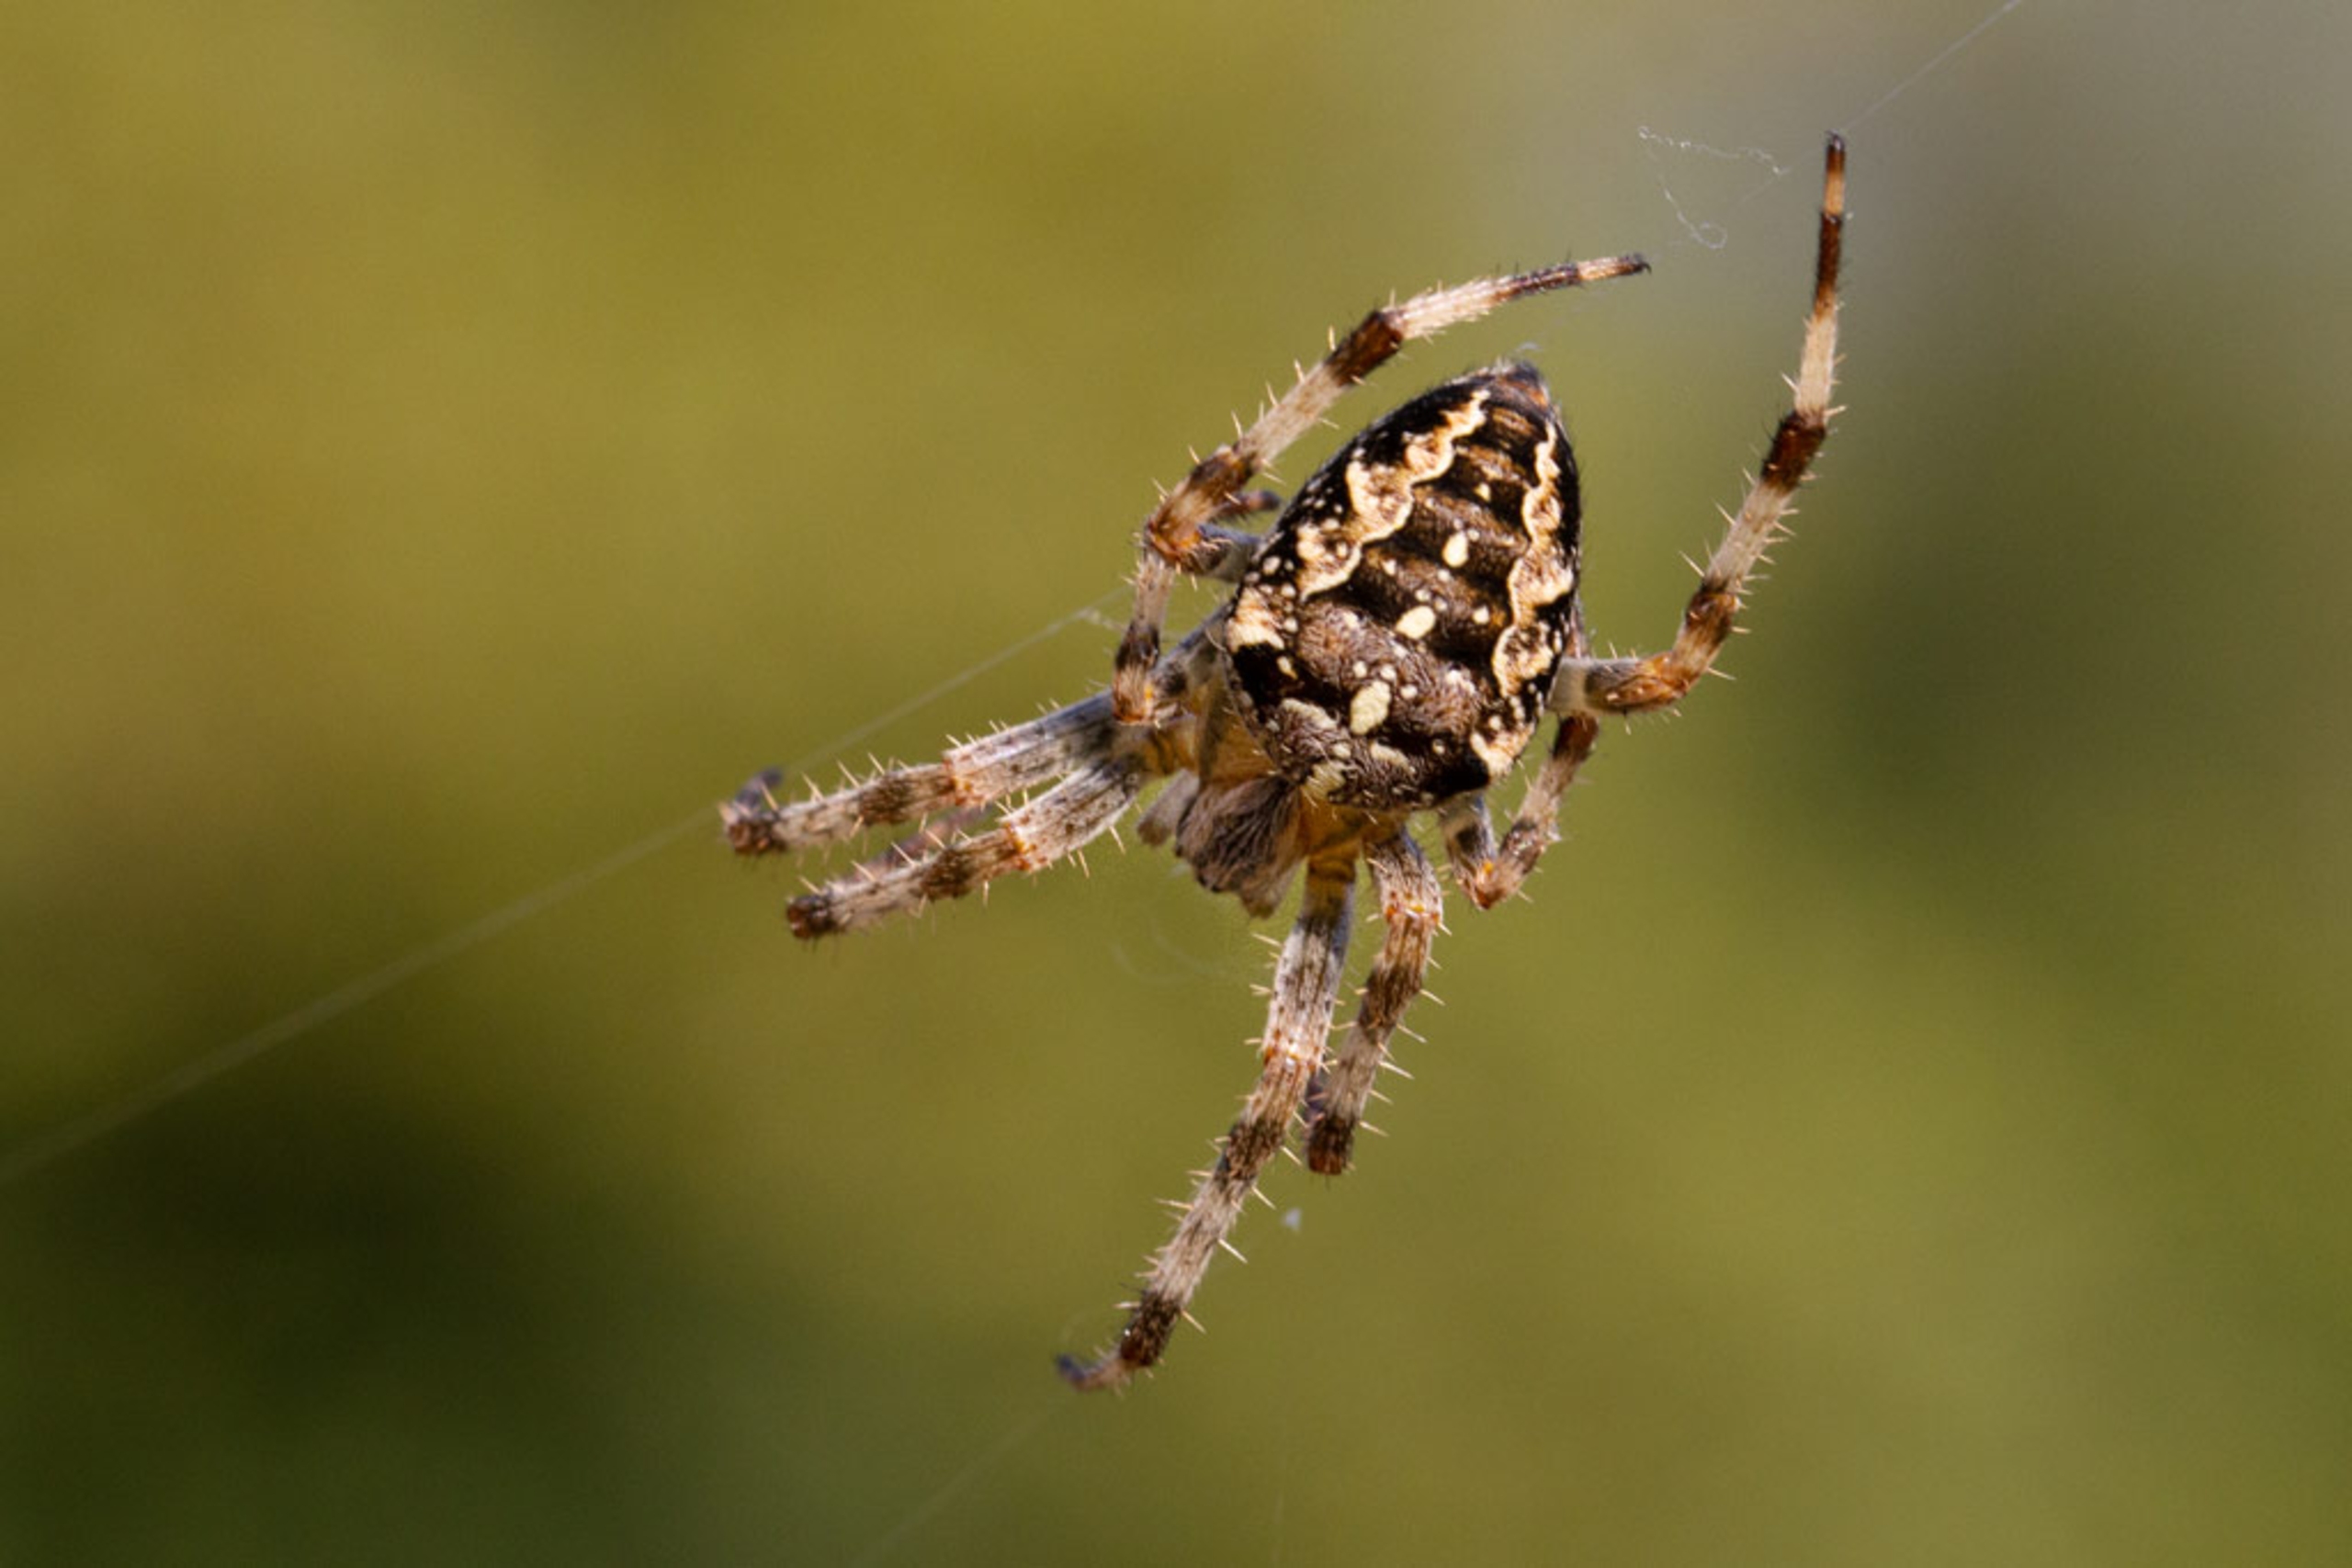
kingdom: Animalia
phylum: Arthropoda
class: Arachnida
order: Araneae
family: Araneidae
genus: Araneus
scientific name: Araneus diadematus
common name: Korsedderkop
